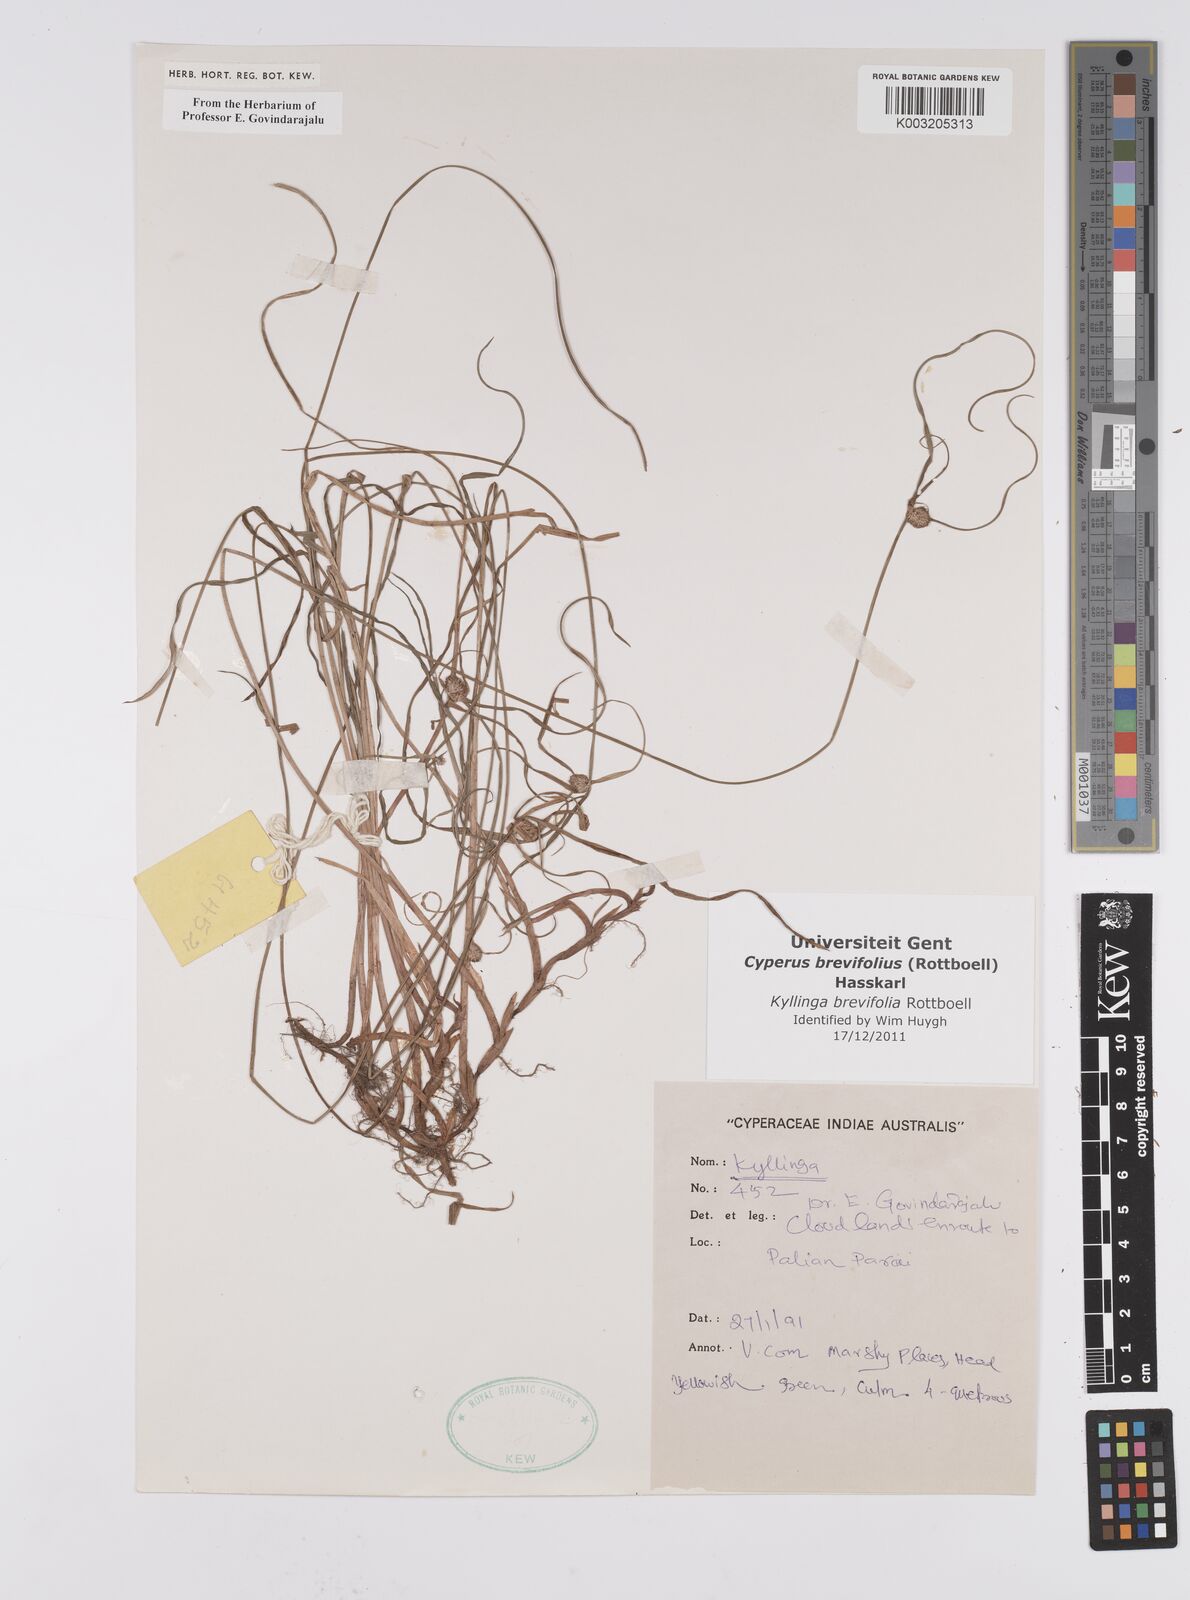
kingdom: Plantae
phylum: Tracheophyta
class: Liliopsida
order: Poales
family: Cyperaceae
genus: Cyperus
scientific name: Cyperus brevifolius
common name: Globe kyllinga
